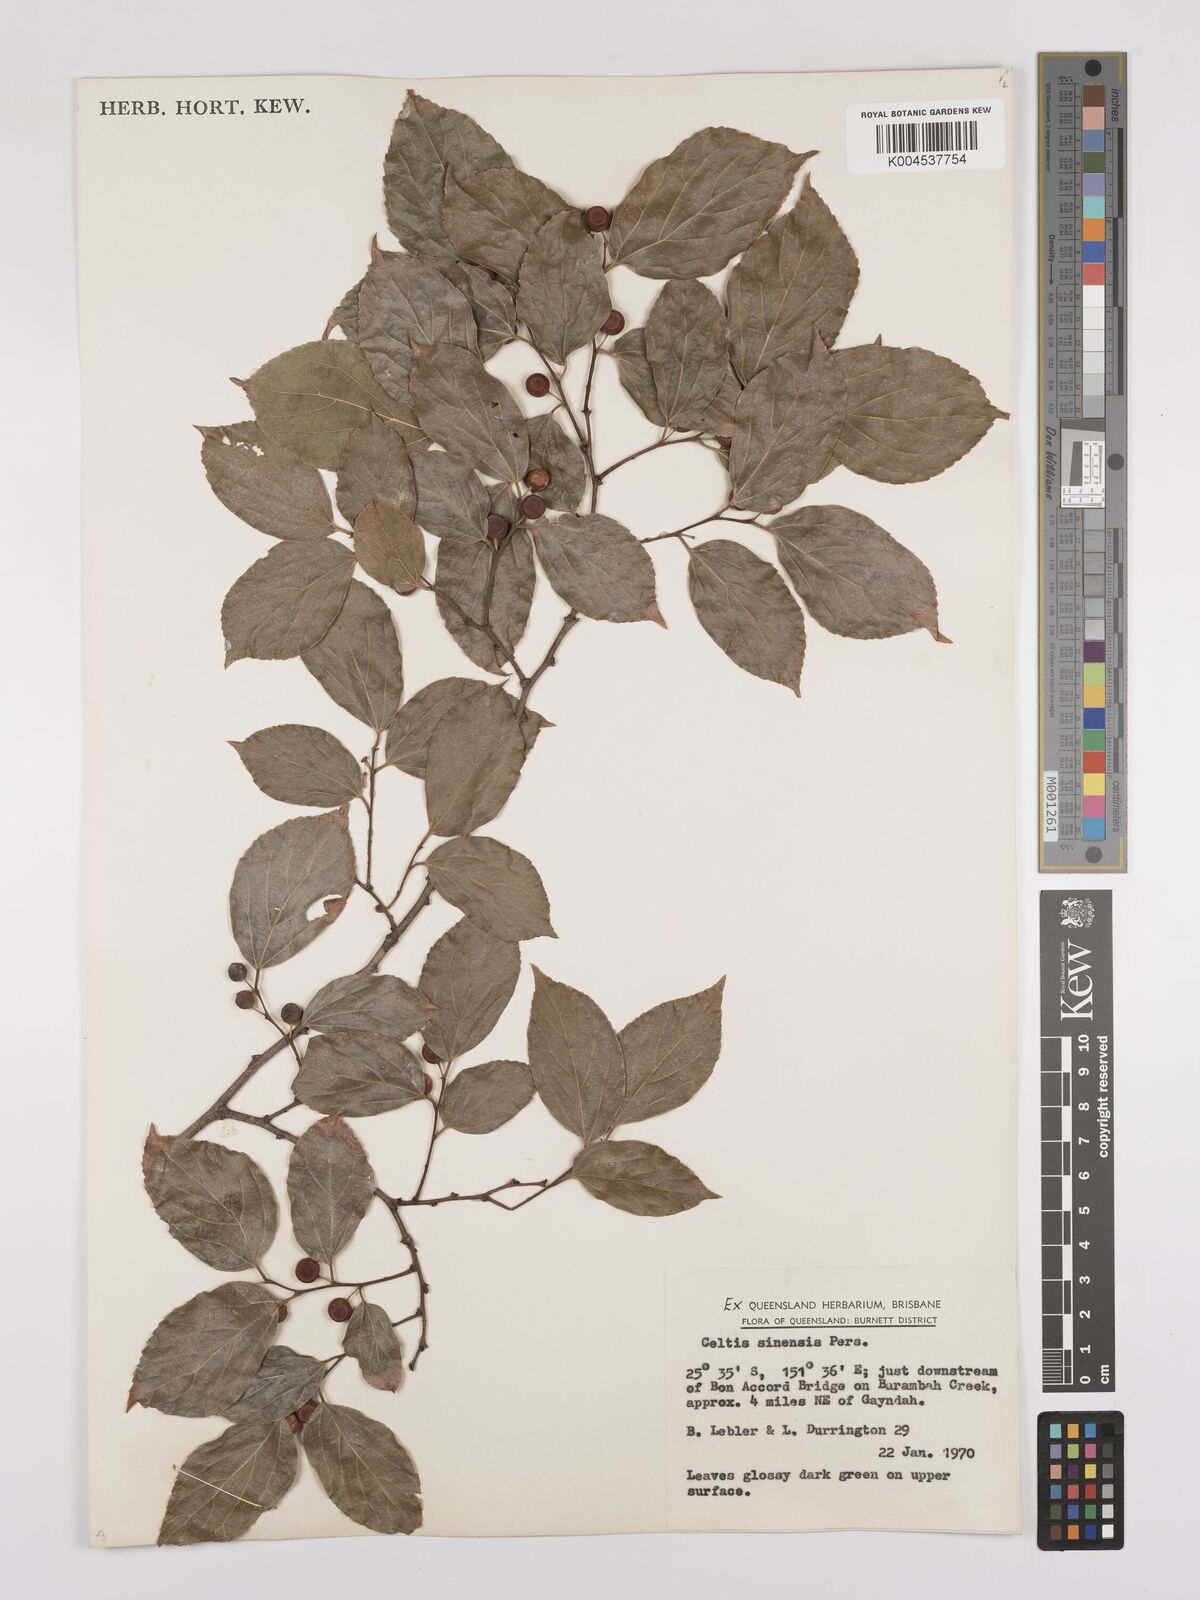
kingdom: Plantae
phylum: Tracheophyta
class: Magnoliopsida
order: Rosales
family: Cannabaceae
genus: Celtis
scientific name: Celtis
